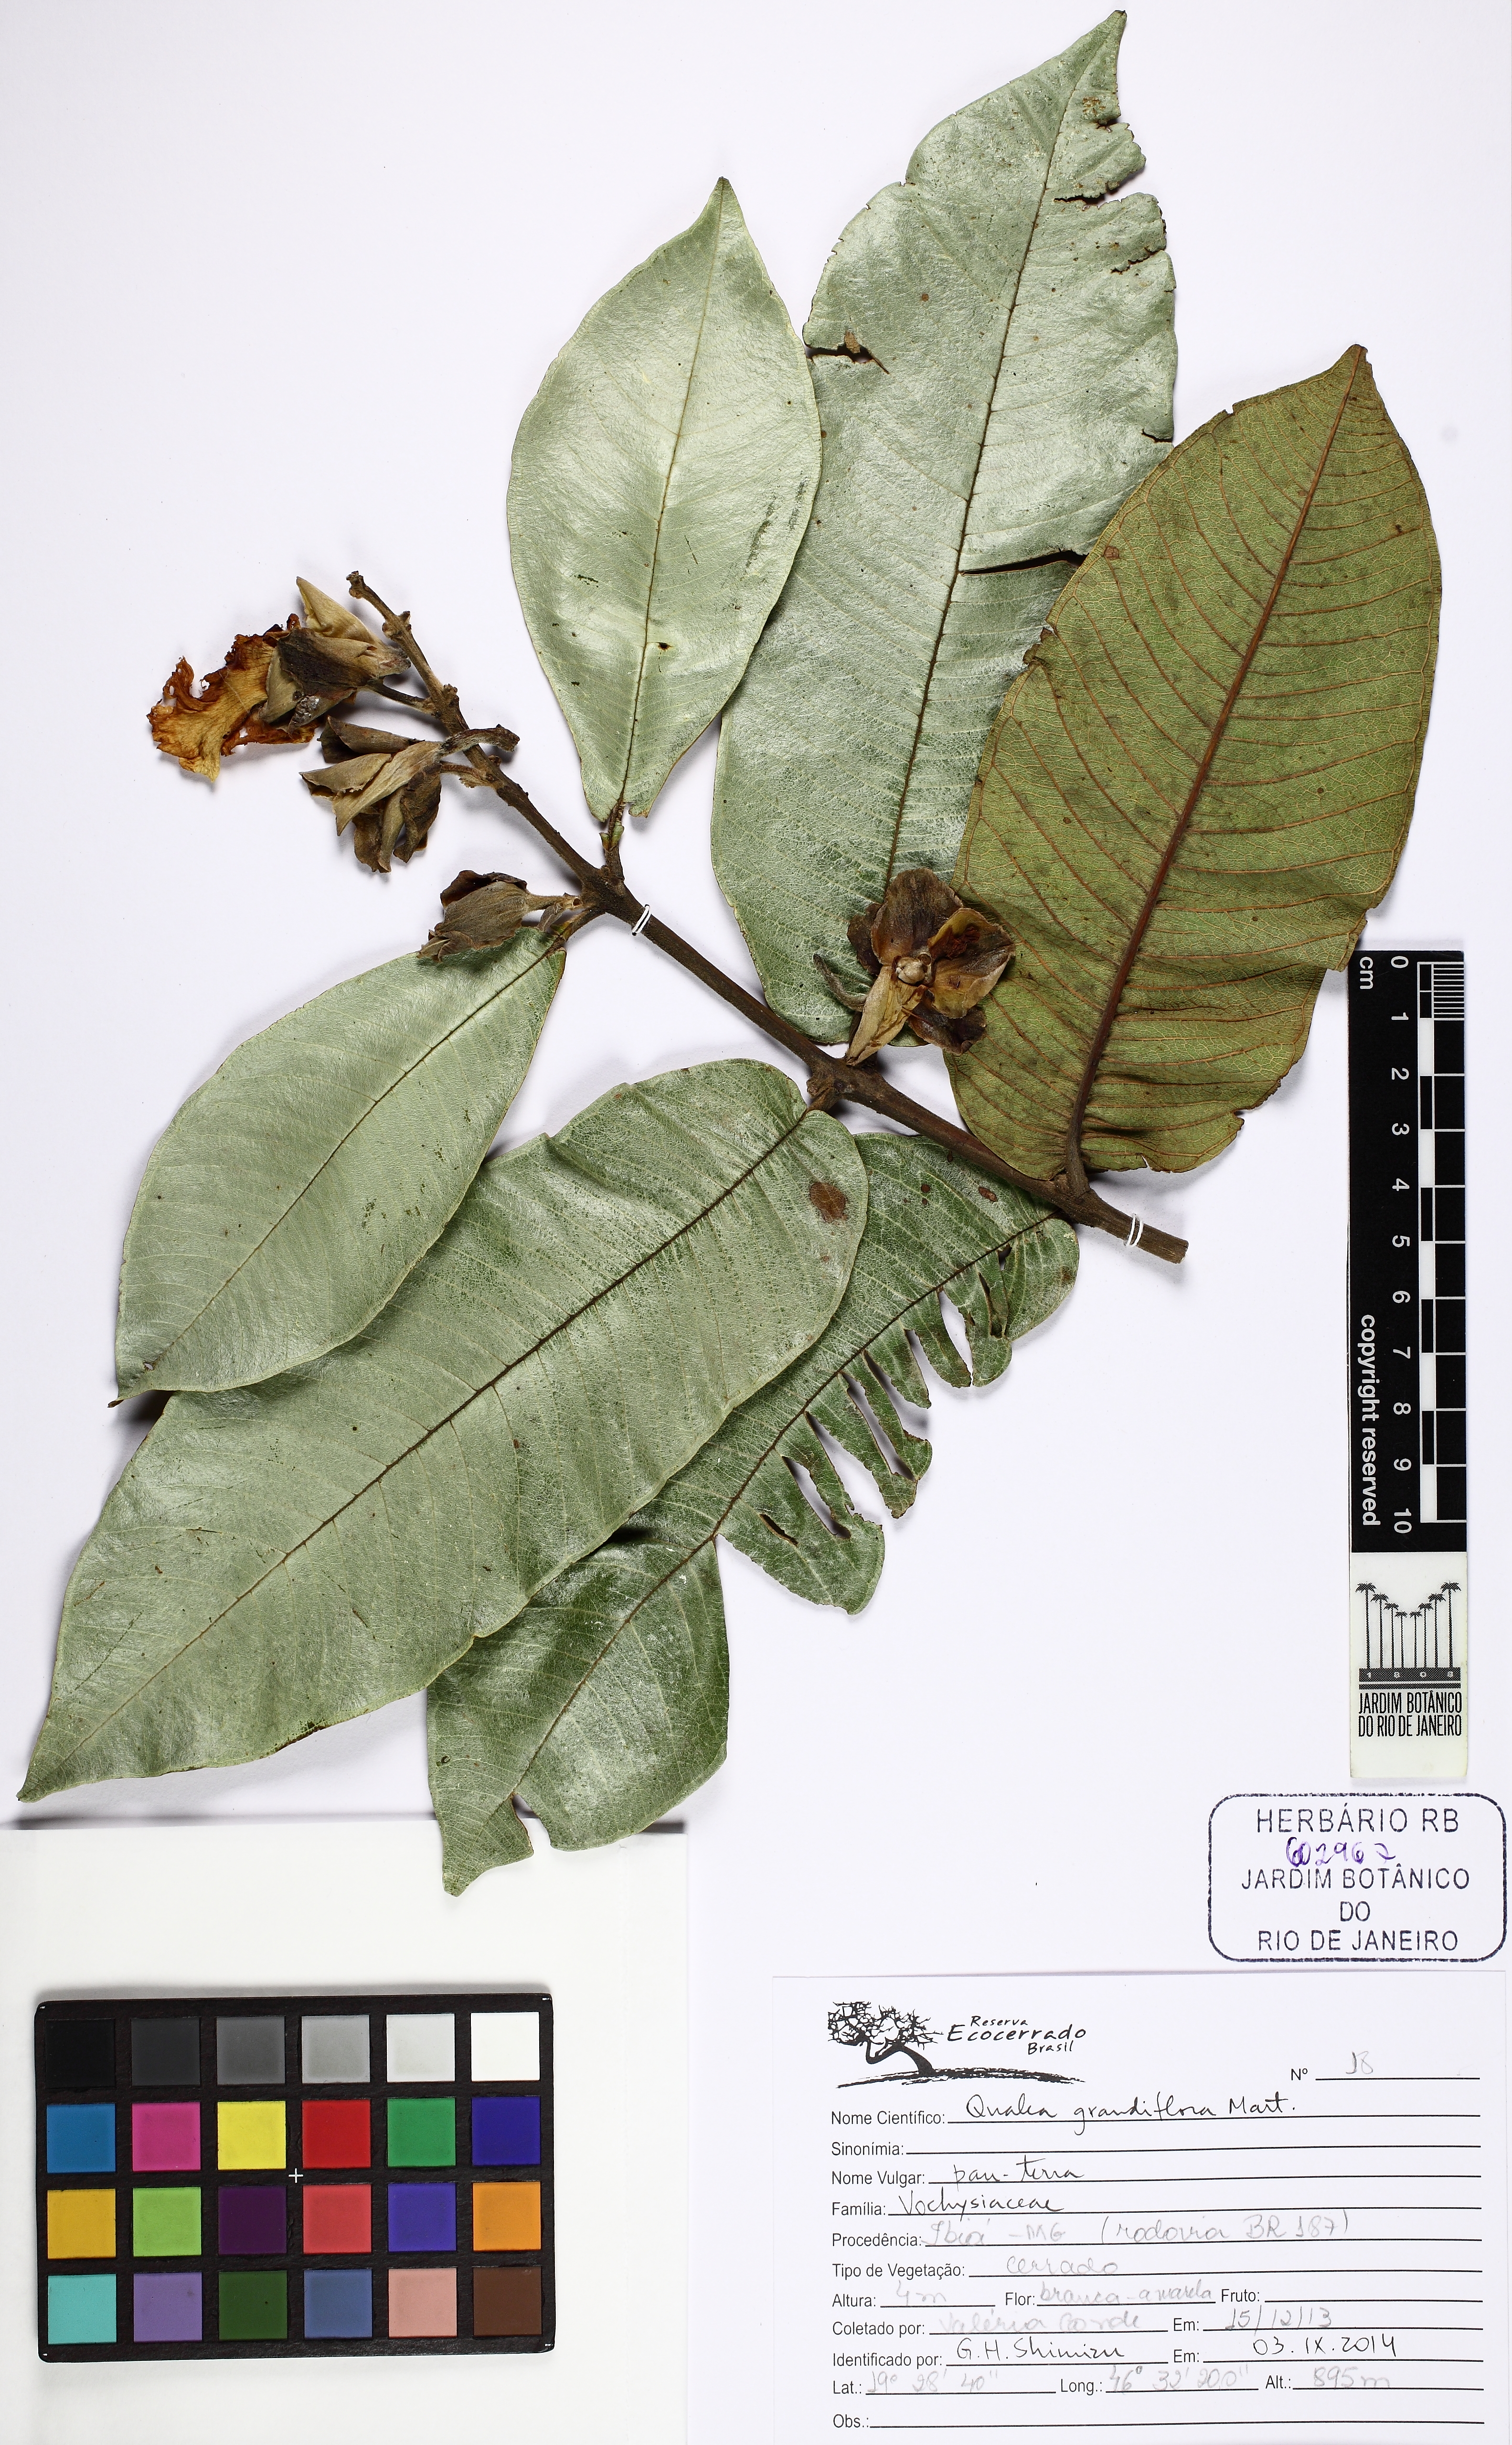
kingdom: Plantae
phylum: Tracheophyta
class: Magnoliopsida
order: Myrtales
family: Vochysiaceae
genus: Qualea
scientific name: Qualea grandiflora
